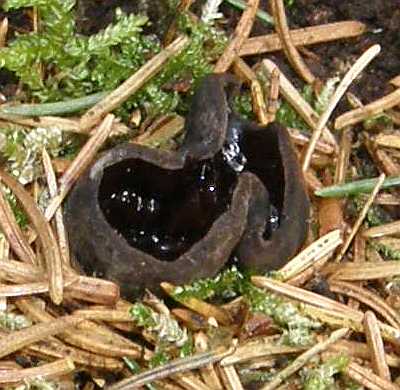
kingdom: Fungi
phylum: Ascomycota
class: Pezizomycetes
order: Pezizales
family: Sarcosomataceae
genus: Pseudoplectania
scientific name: Pseudoplectania nigrella
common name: almindelig sortbæger
